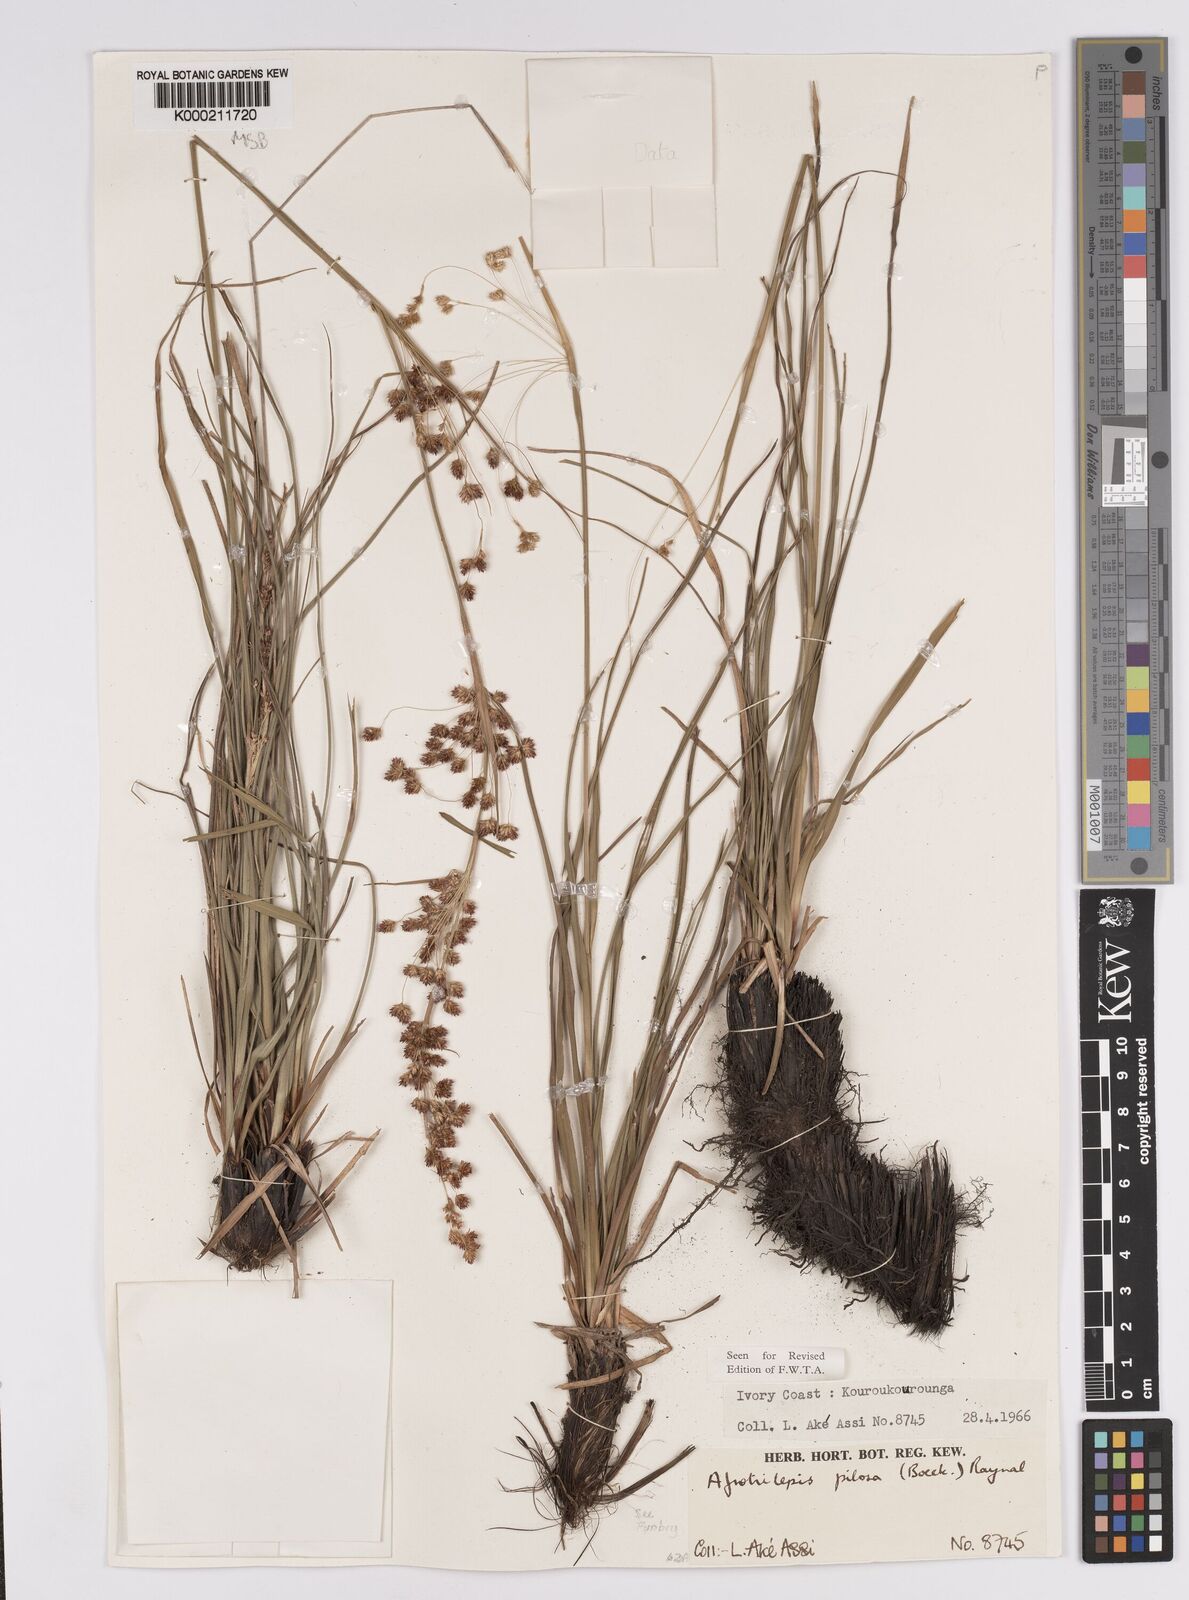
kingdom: Plantae
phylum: Tracheophyta
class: Liliopsida
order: Poales
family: Cyperaceae
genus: Afrotrilepis
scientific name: Afrotrilepis pilosa
